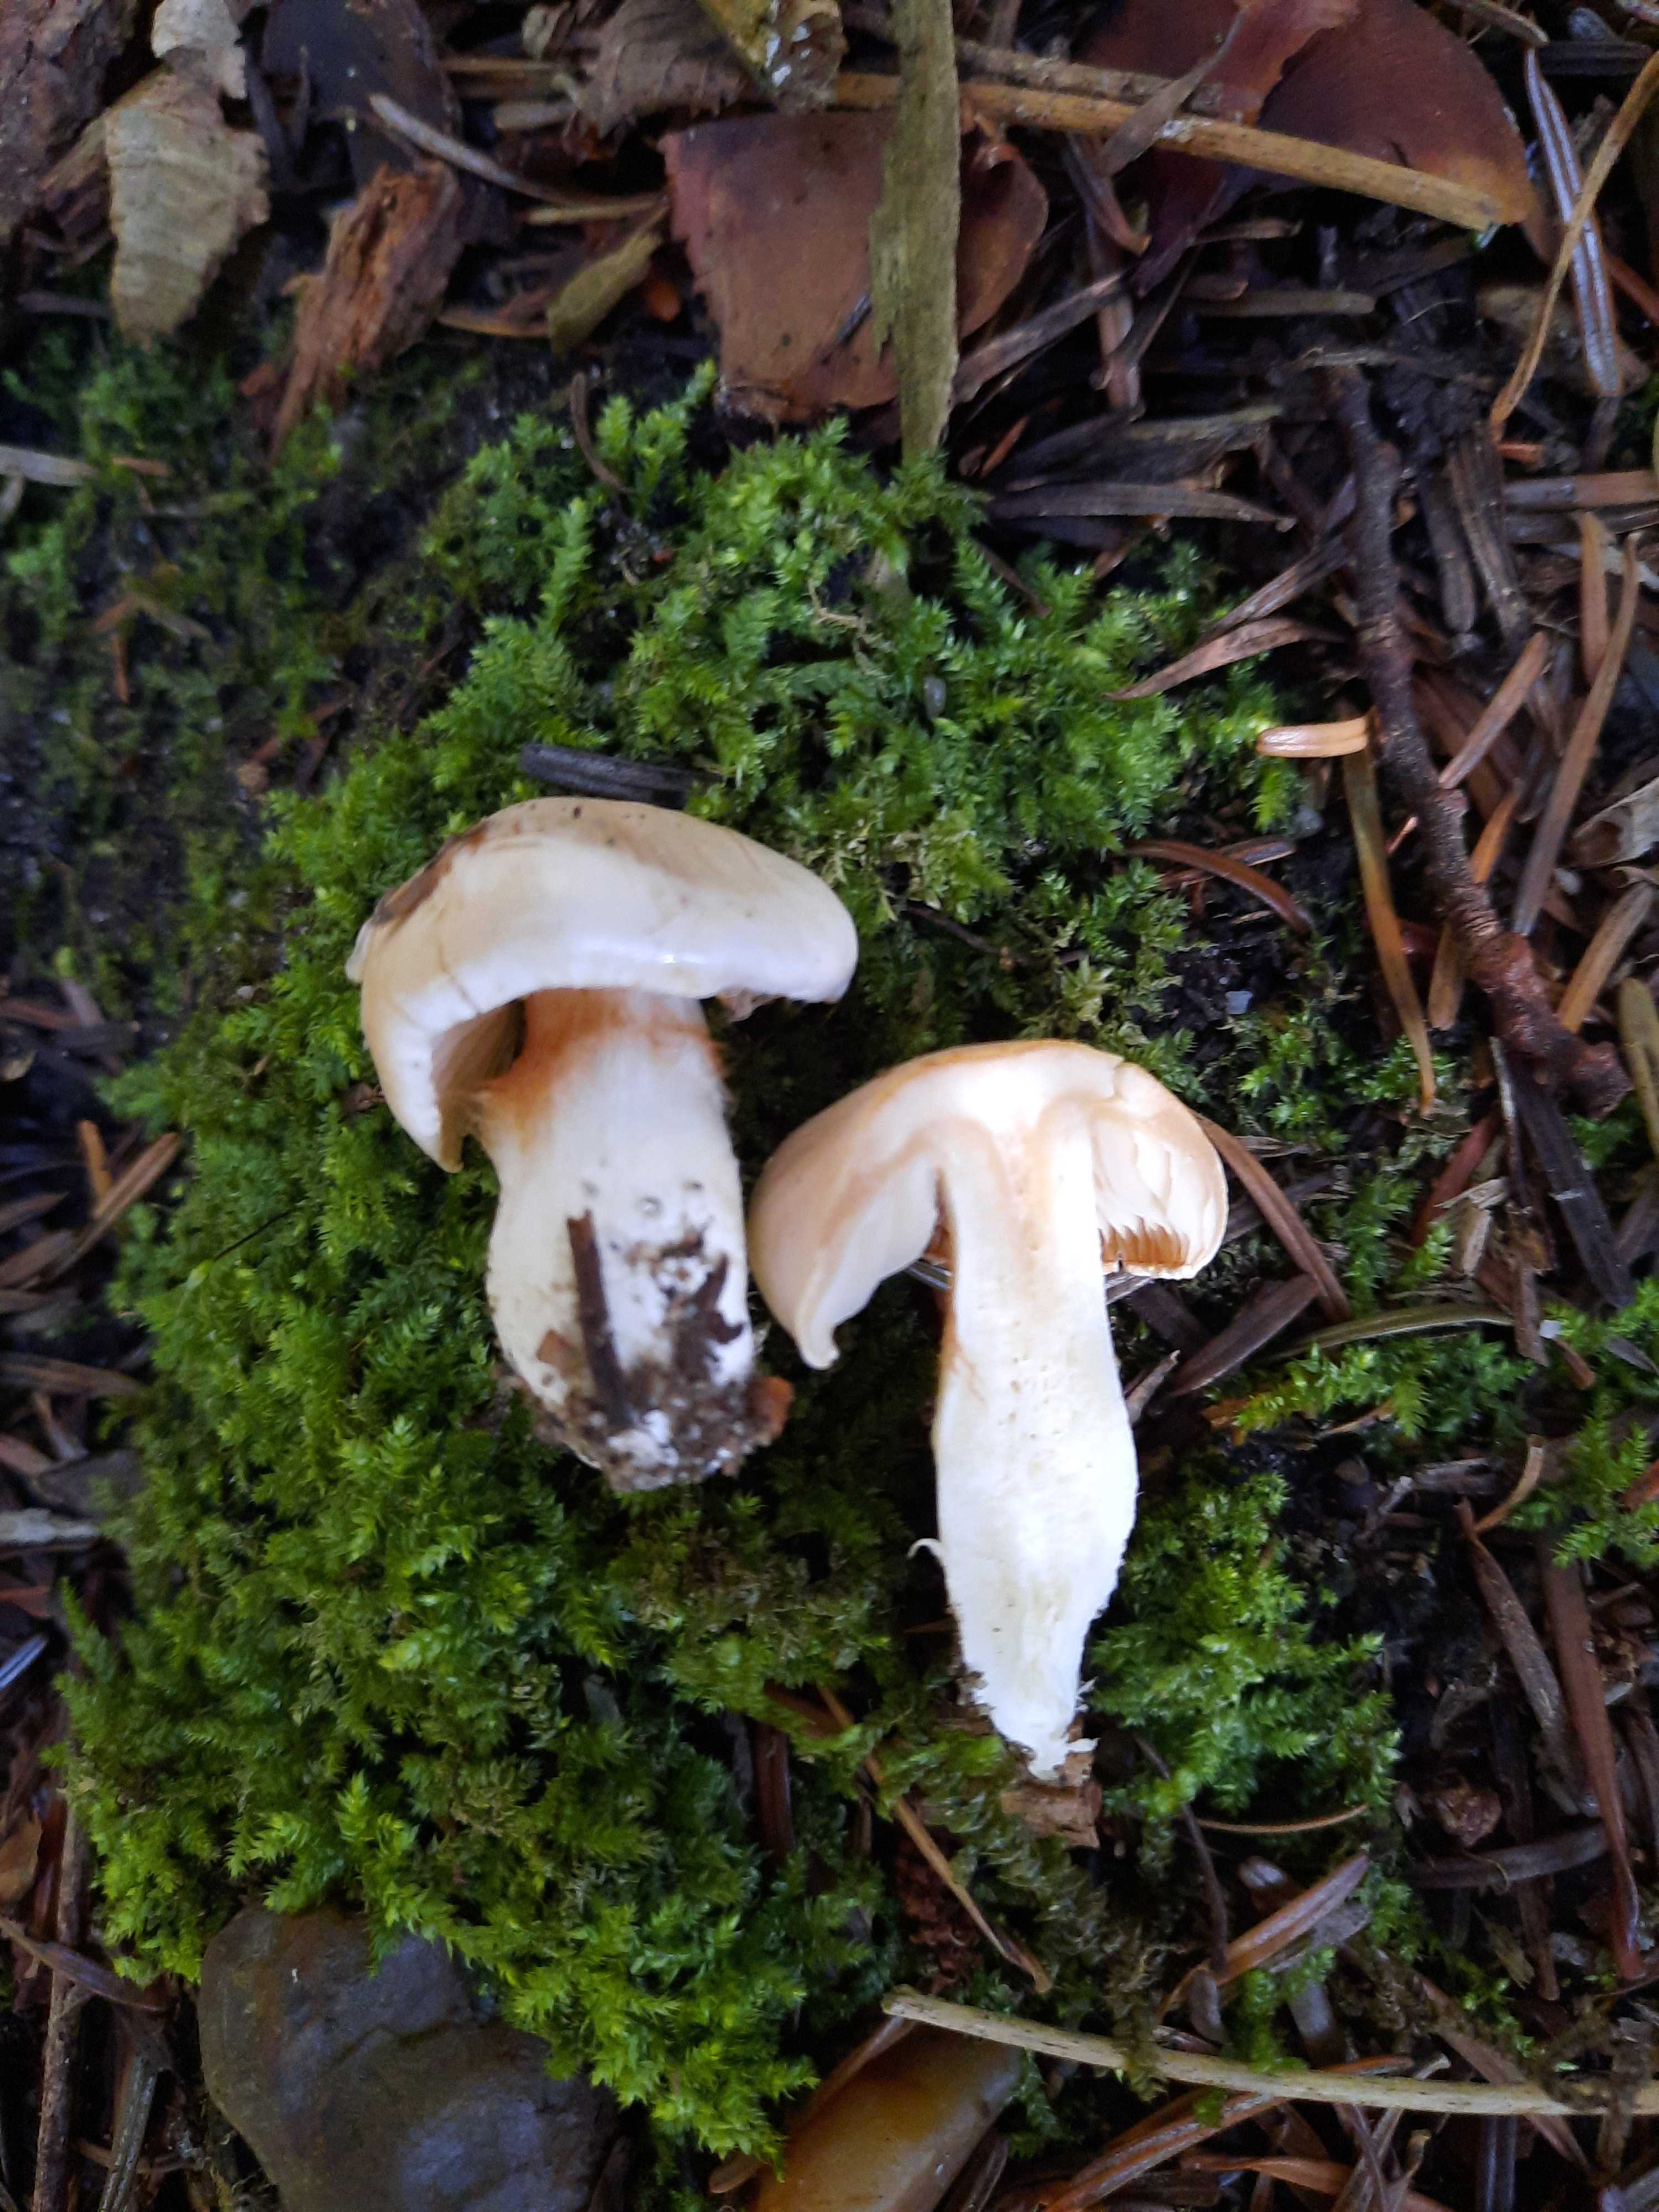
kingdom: Fungi
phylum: Basidiomycota
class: Agaricomycetes
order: Agaricales
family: Cortinariaceae
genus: Thaxterogaster
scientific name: Thaxterogaster leucoluteolus
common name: isabella slørhat
